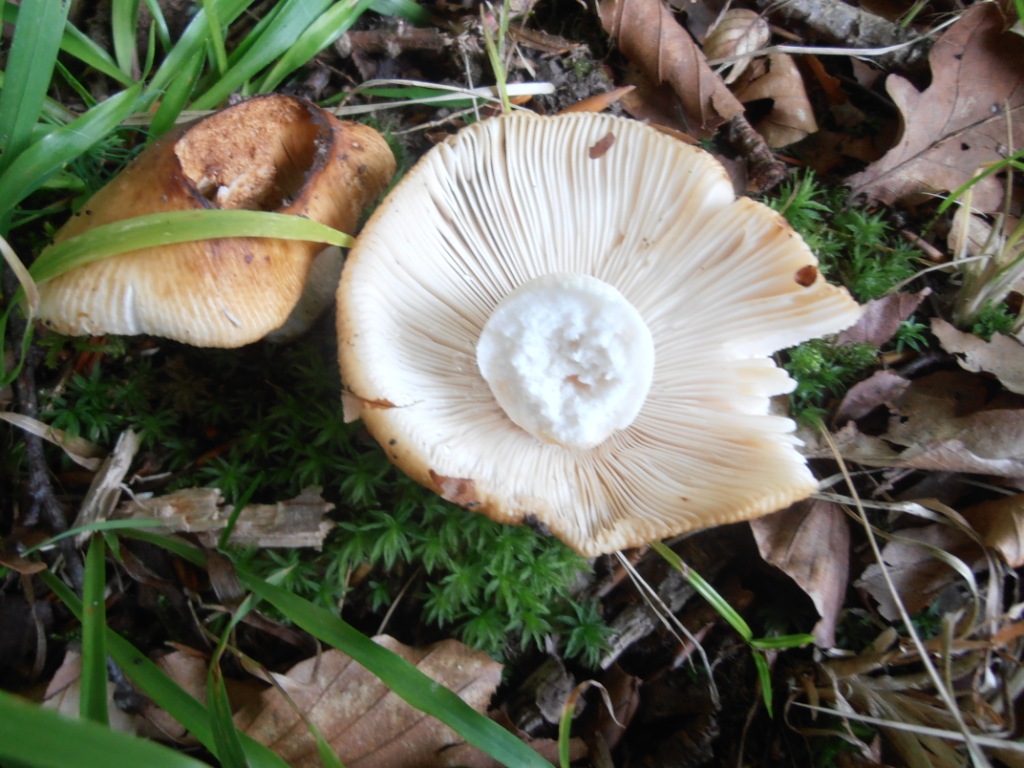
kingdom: Fungi
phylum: Basidiomycota
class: Agaricomycetes
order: Russulales
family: Russulaceae
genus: Russula
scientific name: Russula grata
